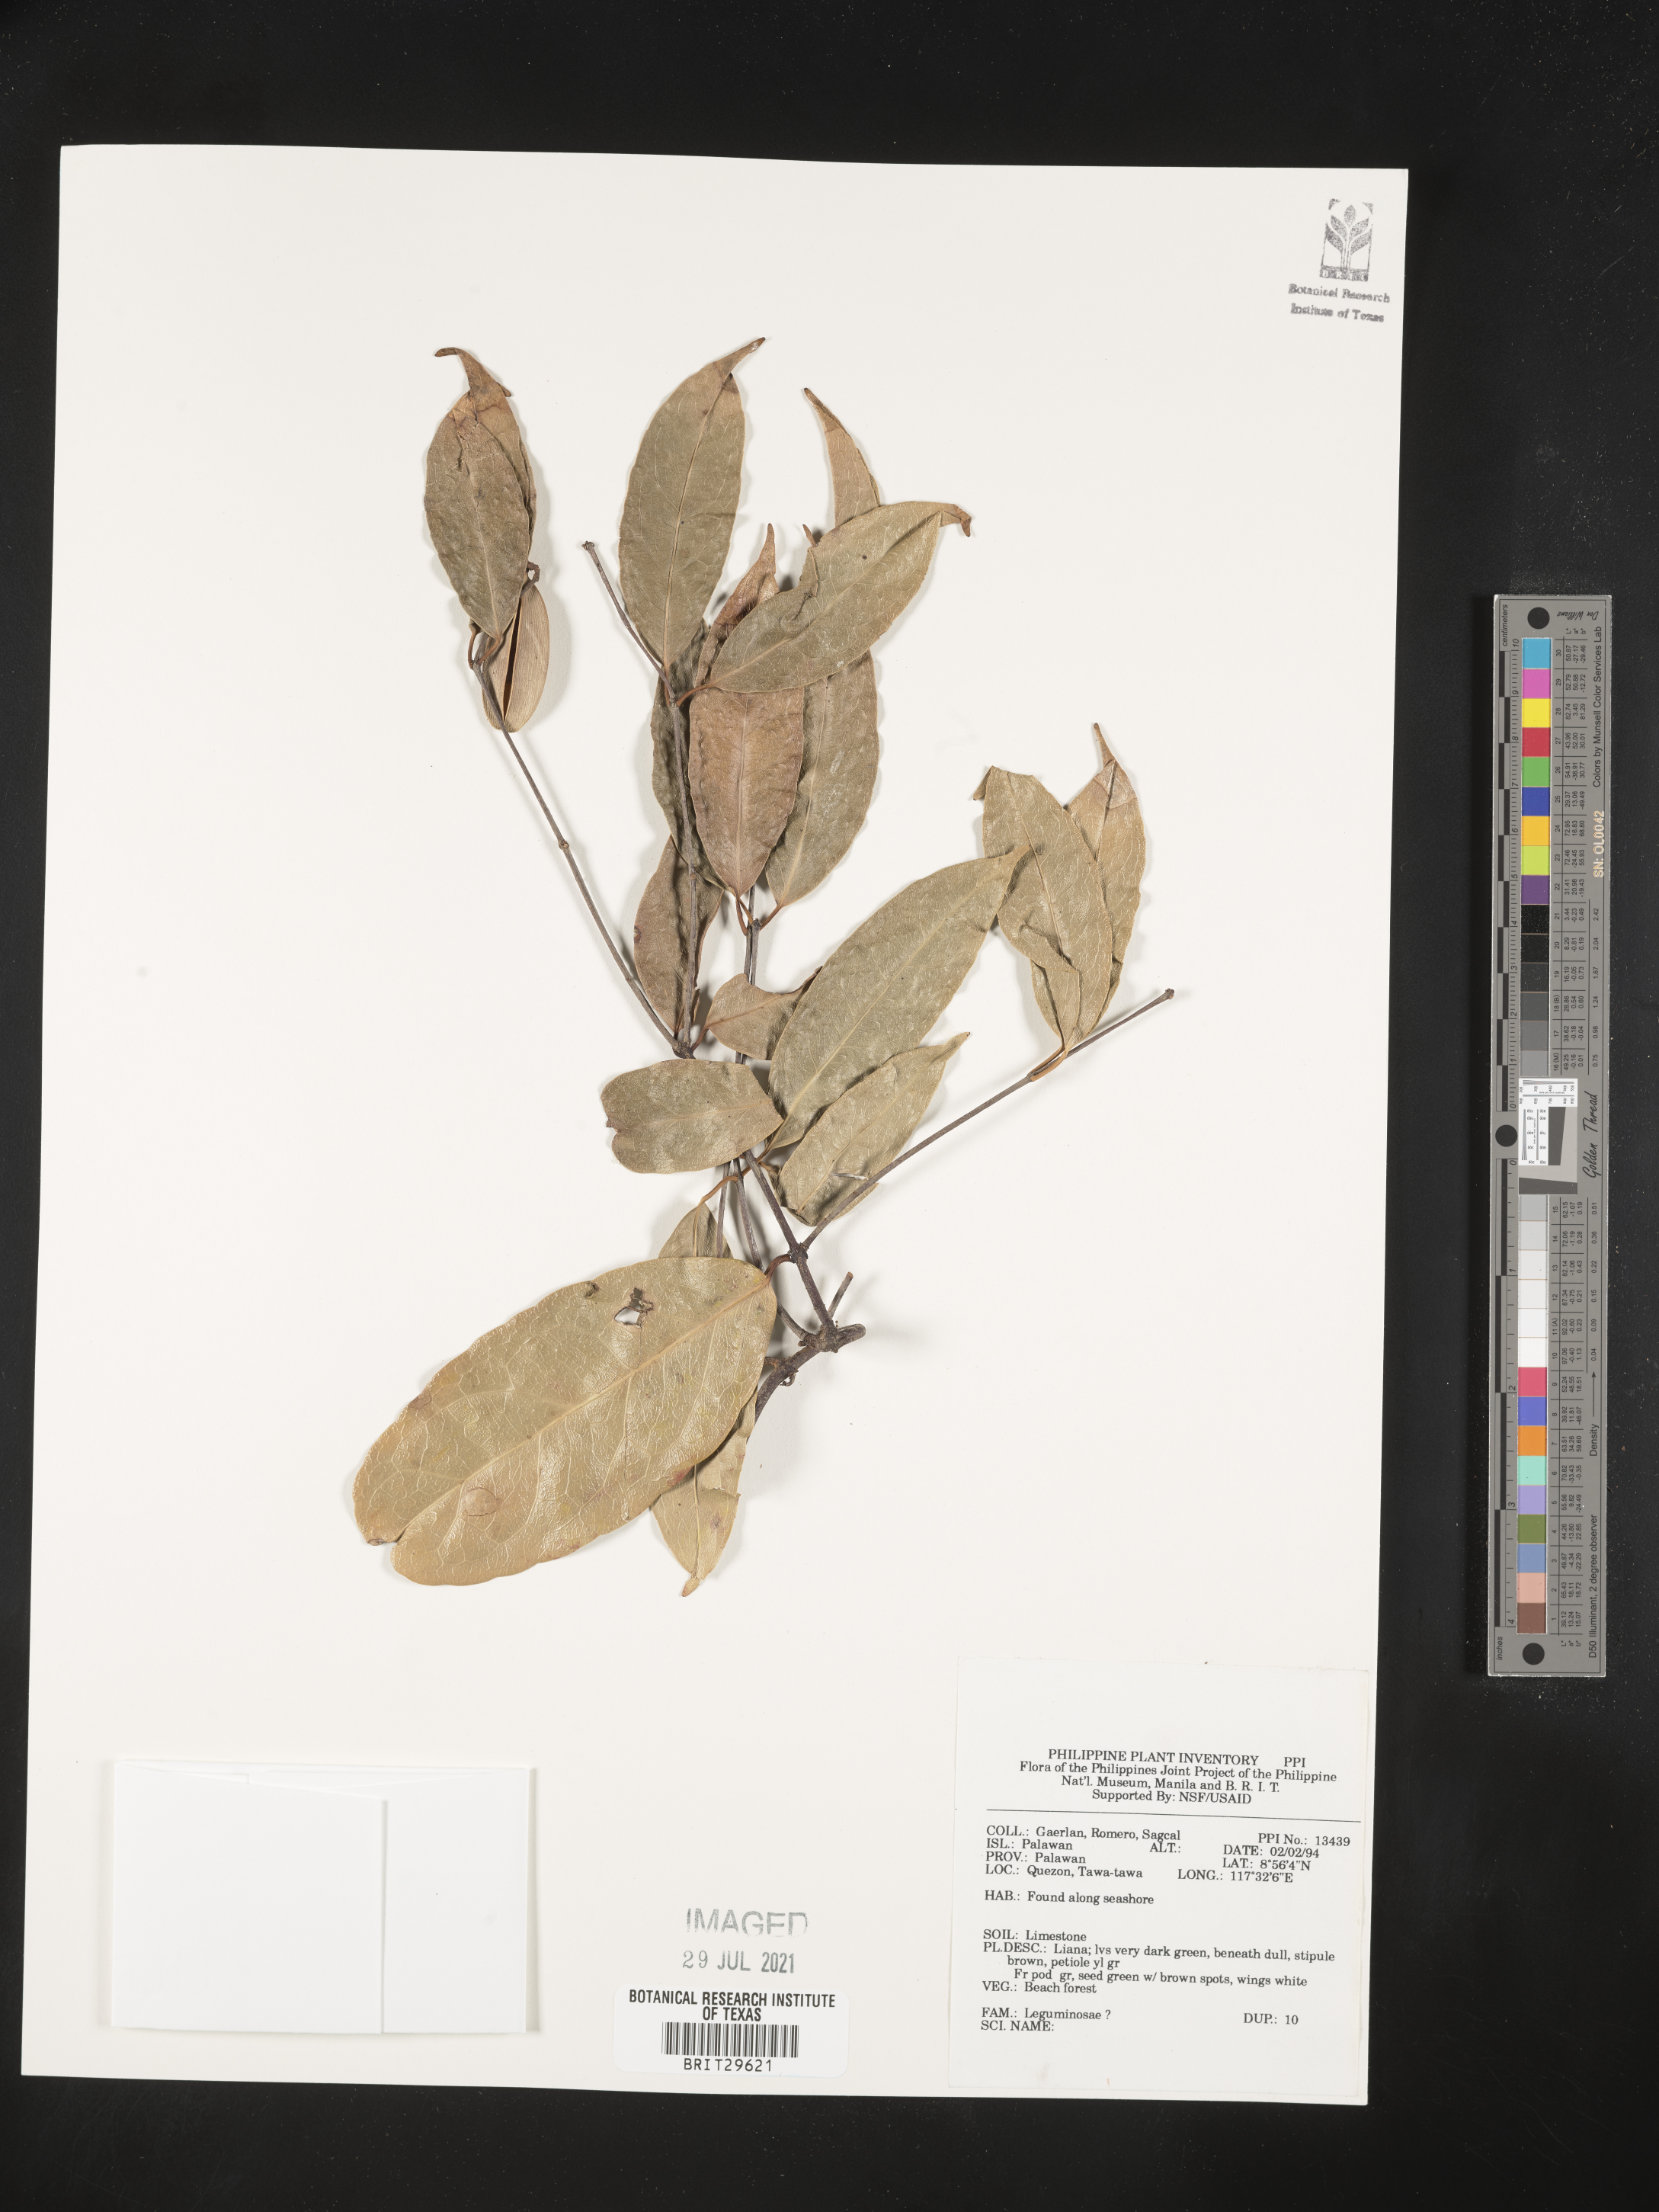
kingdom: Plantae
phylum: Tracheophyta
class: Magnoliopsida
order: Fabales
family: Fabaceae
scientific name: Fabaceae
